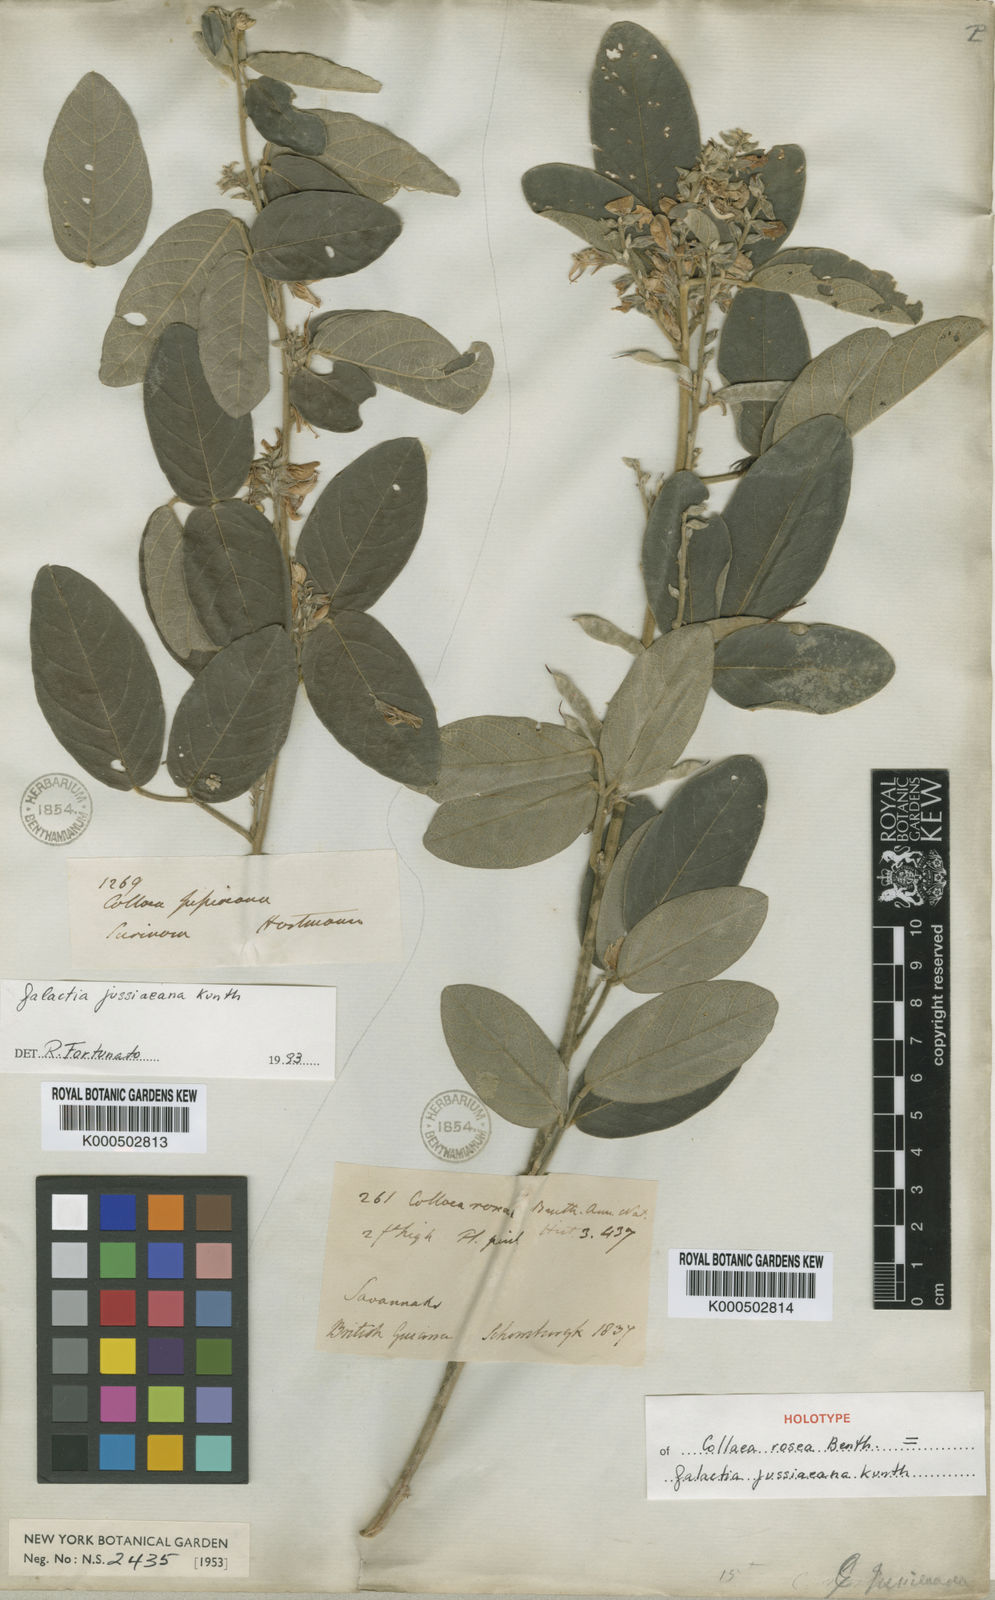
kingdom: Plantae
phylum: Tracheophyta
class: Magnoliopsida
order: Fabales
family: Fabaceae
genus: Galactia
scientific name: Galactia jussiaeana
